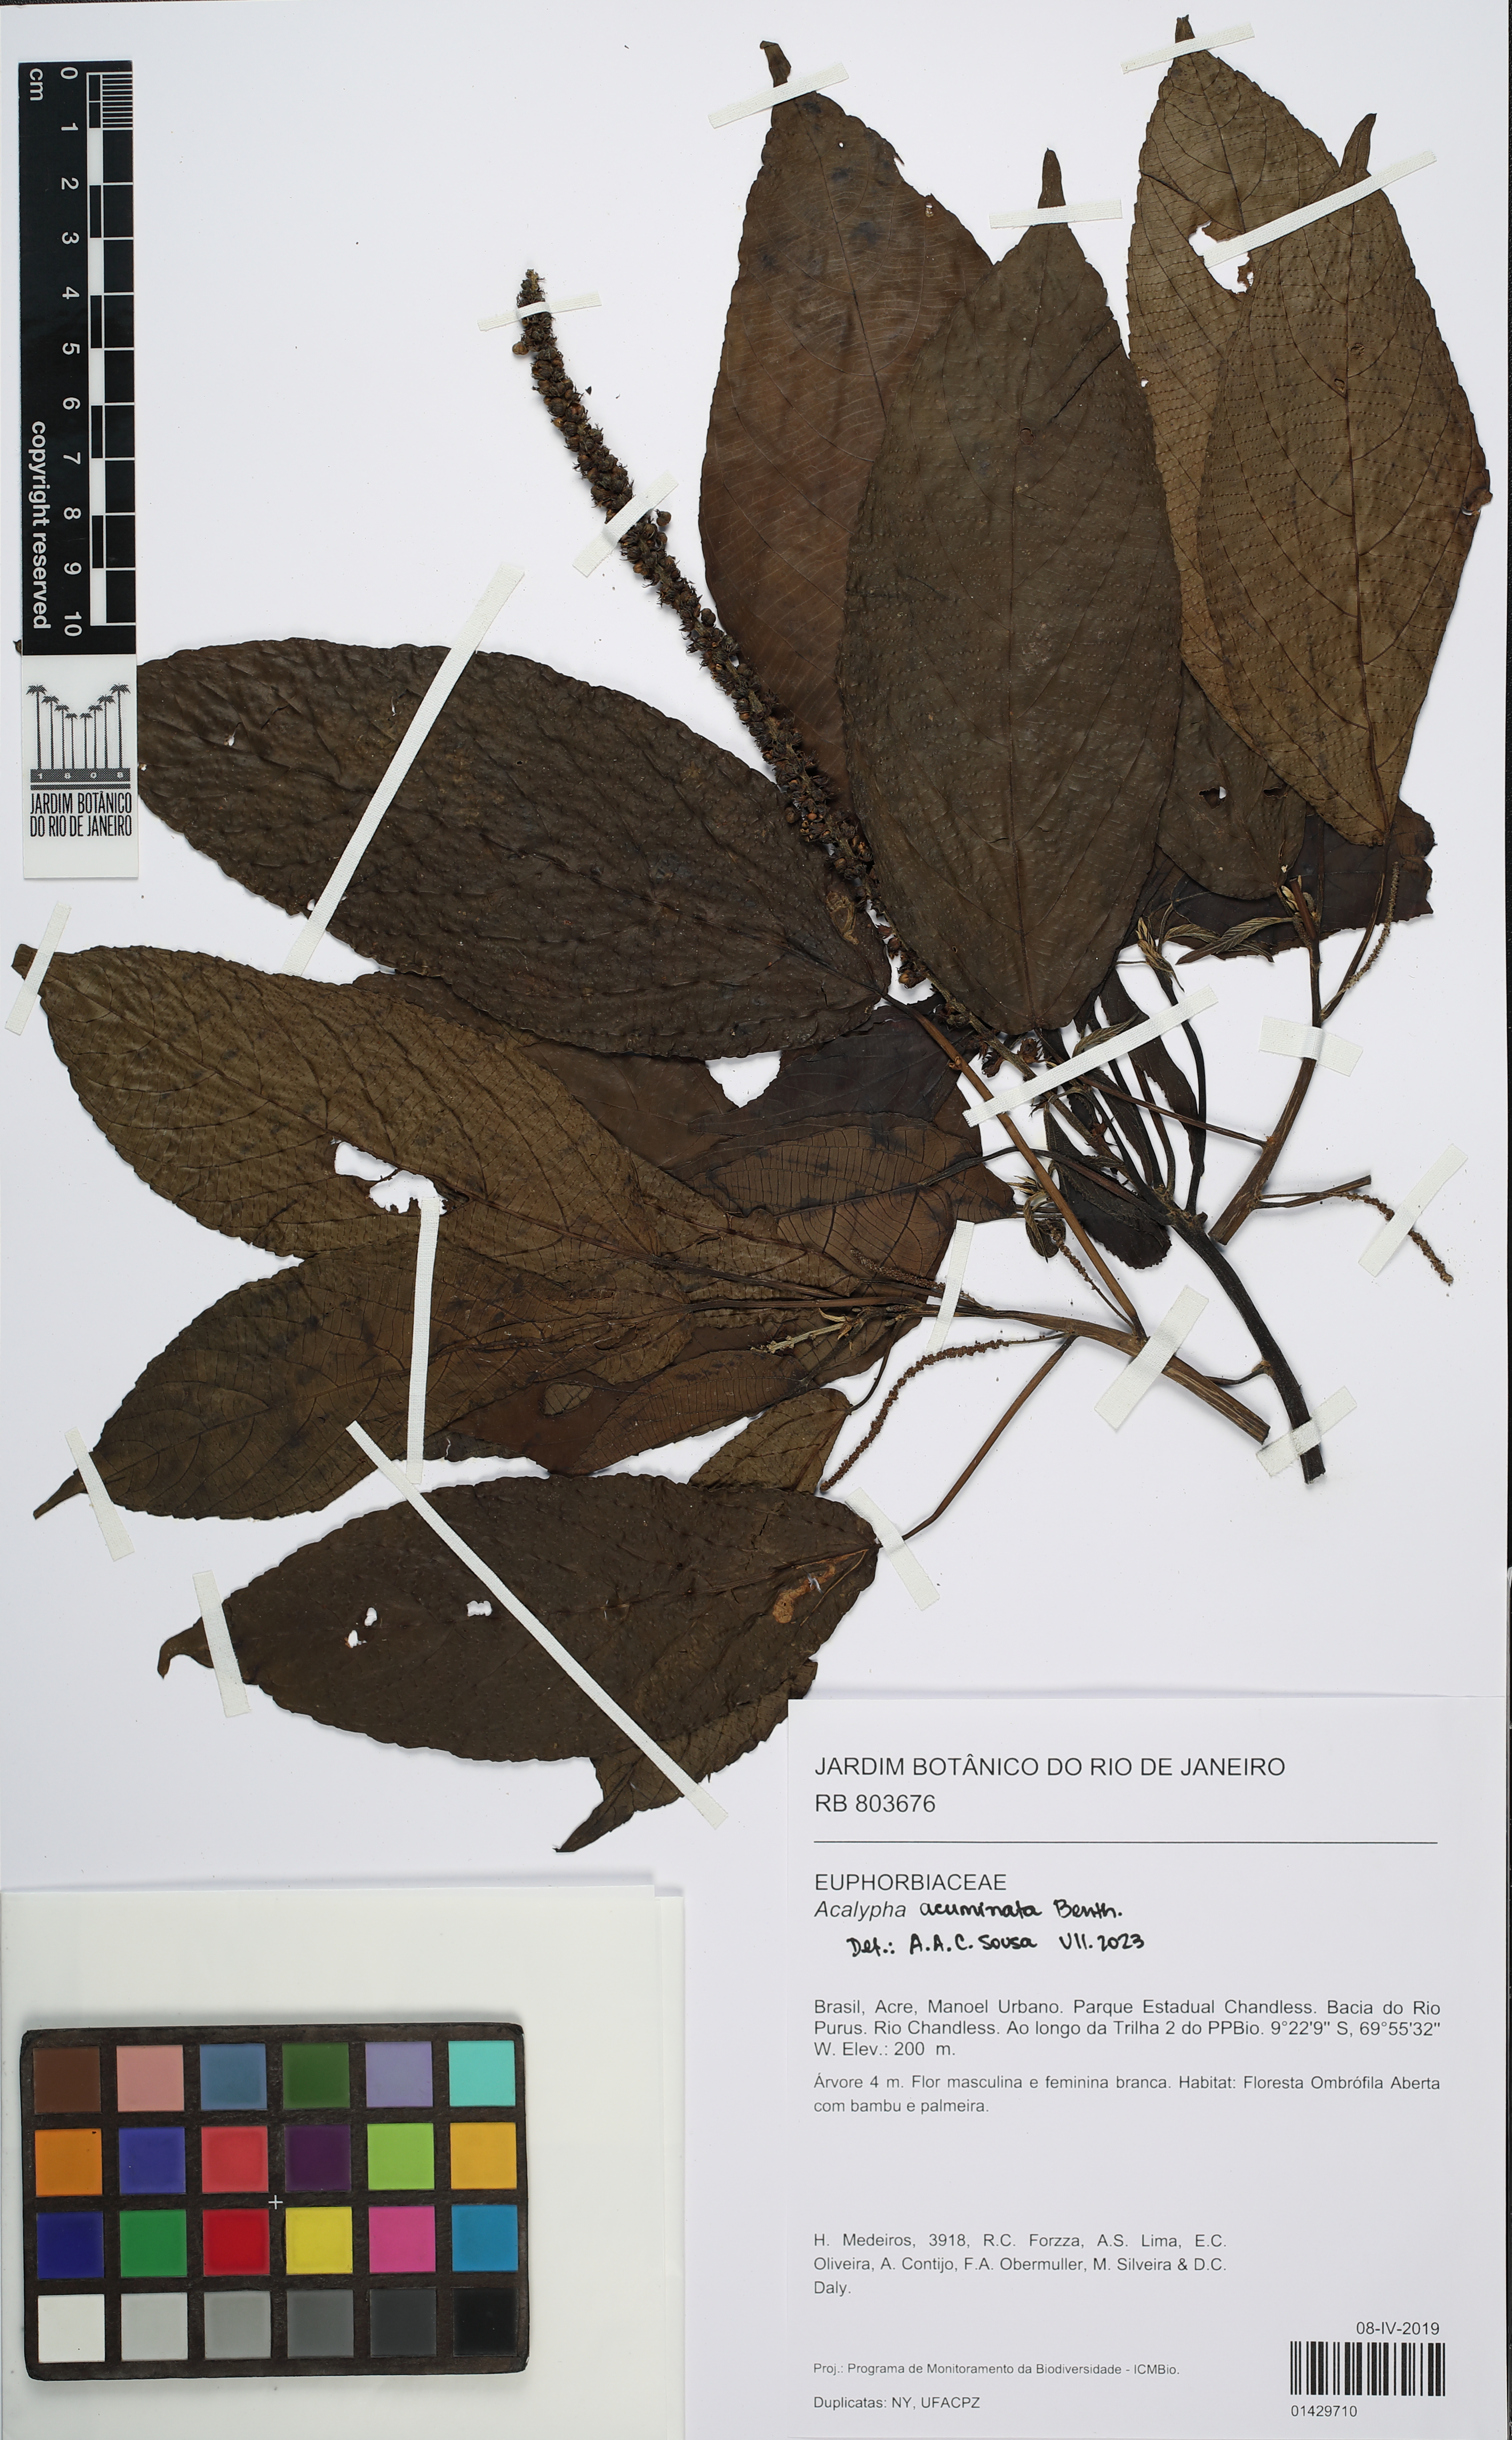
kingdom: Plantae
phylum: Tracheophyta
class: Magnoliopsida
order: Malpighiales
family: Euphorbiaceae
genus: Acalypha
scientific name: Acalypha acuminata
